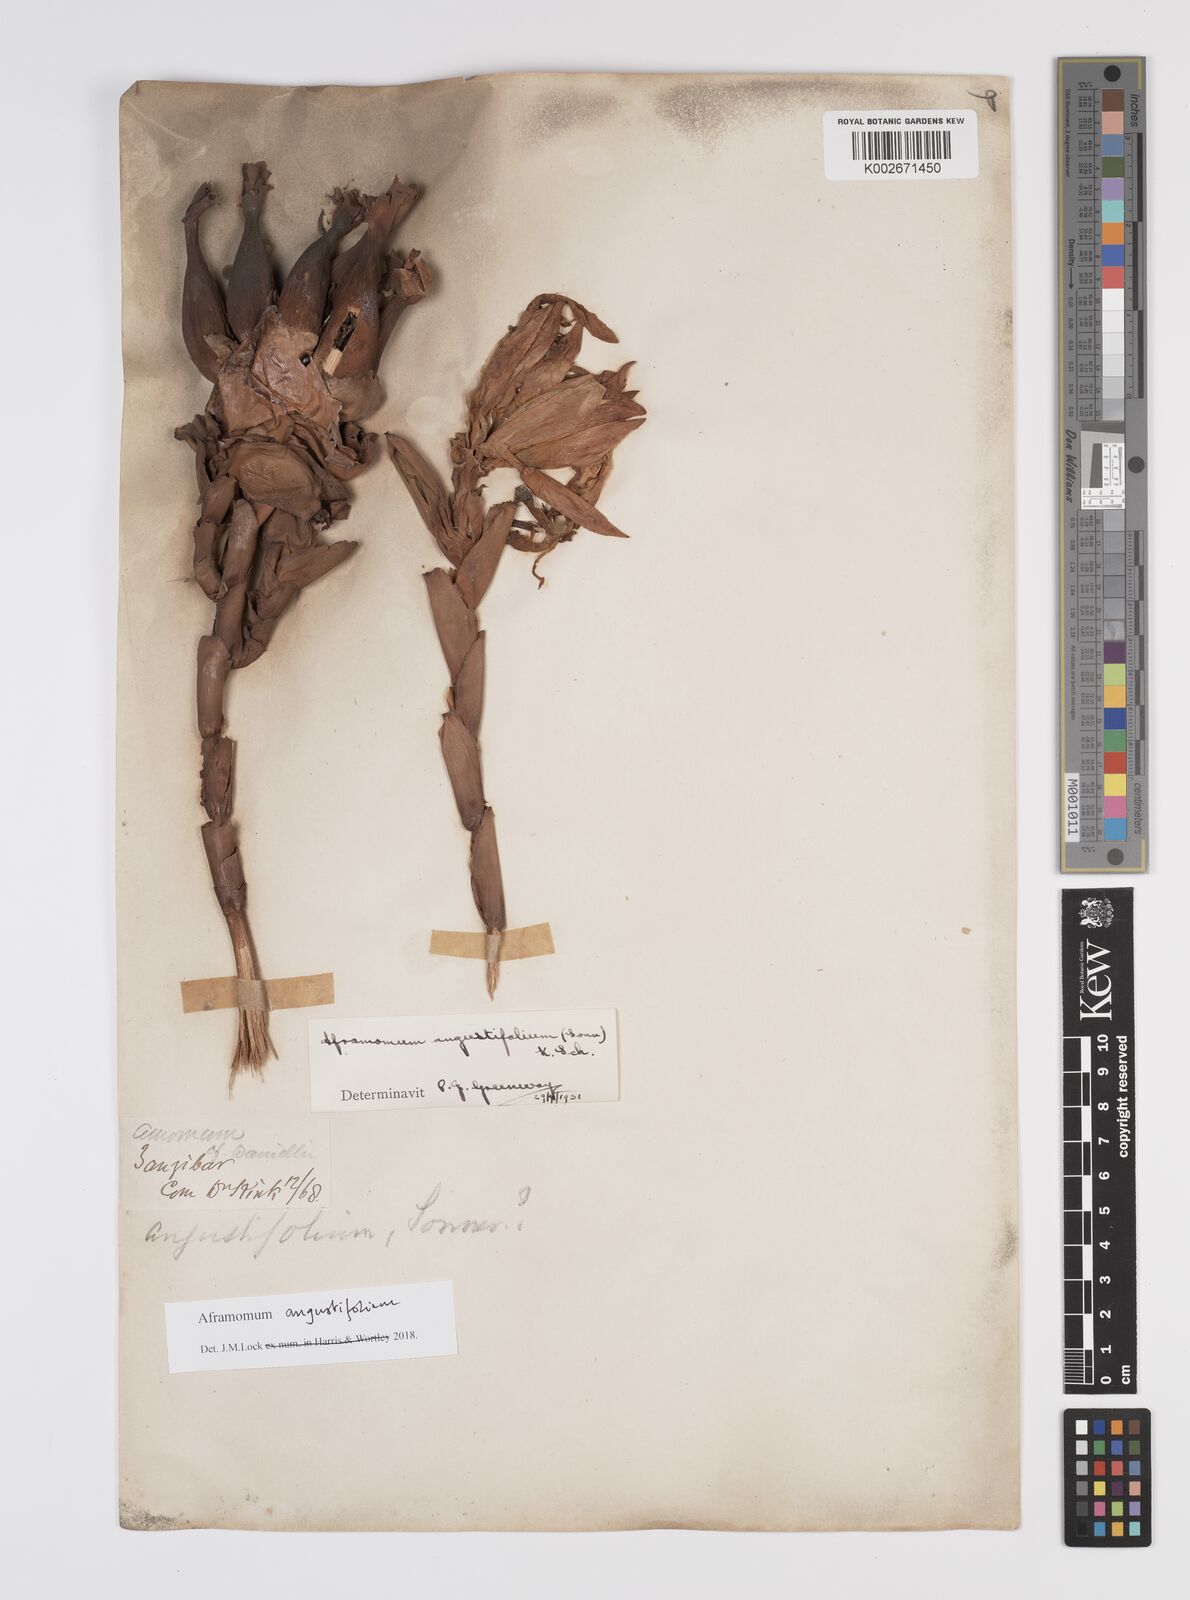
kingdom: Plantae
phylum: Tracheophyta
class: Liliopsida
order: Zingiberales
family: Zingiberaceae
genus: Aframomum
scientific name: Aframomum angustifolium
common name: Guinea grains
